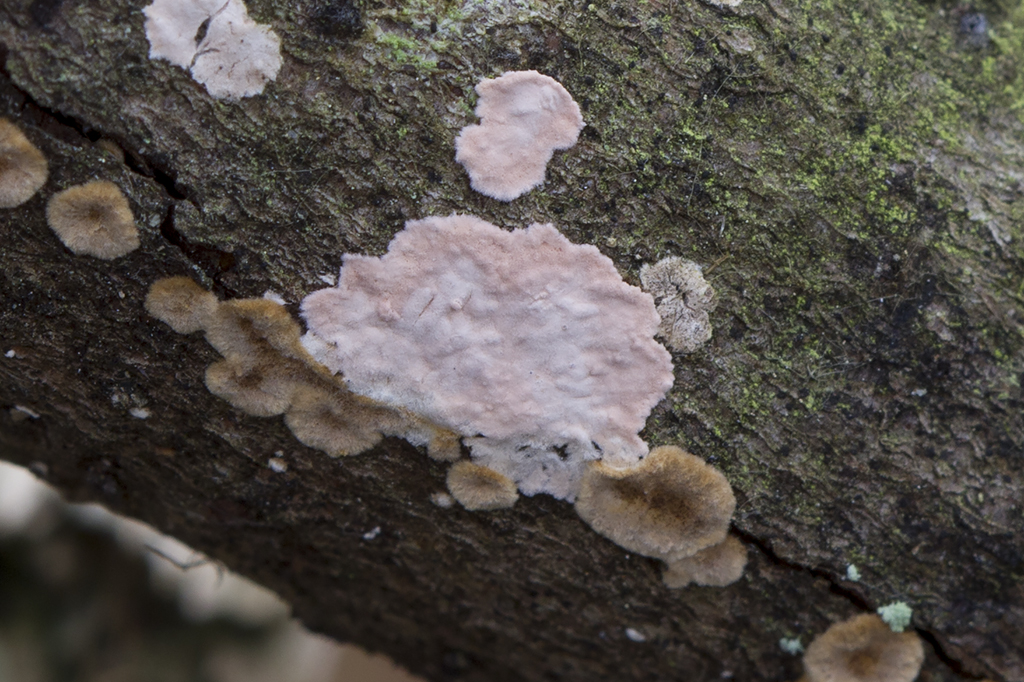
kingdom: Fungi
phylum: Basidiomycota
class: Agaricomycetes
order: Corticiales
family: Corticiaceae
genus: Corticium
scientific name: Corticium roseum
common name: rosa barkskind
